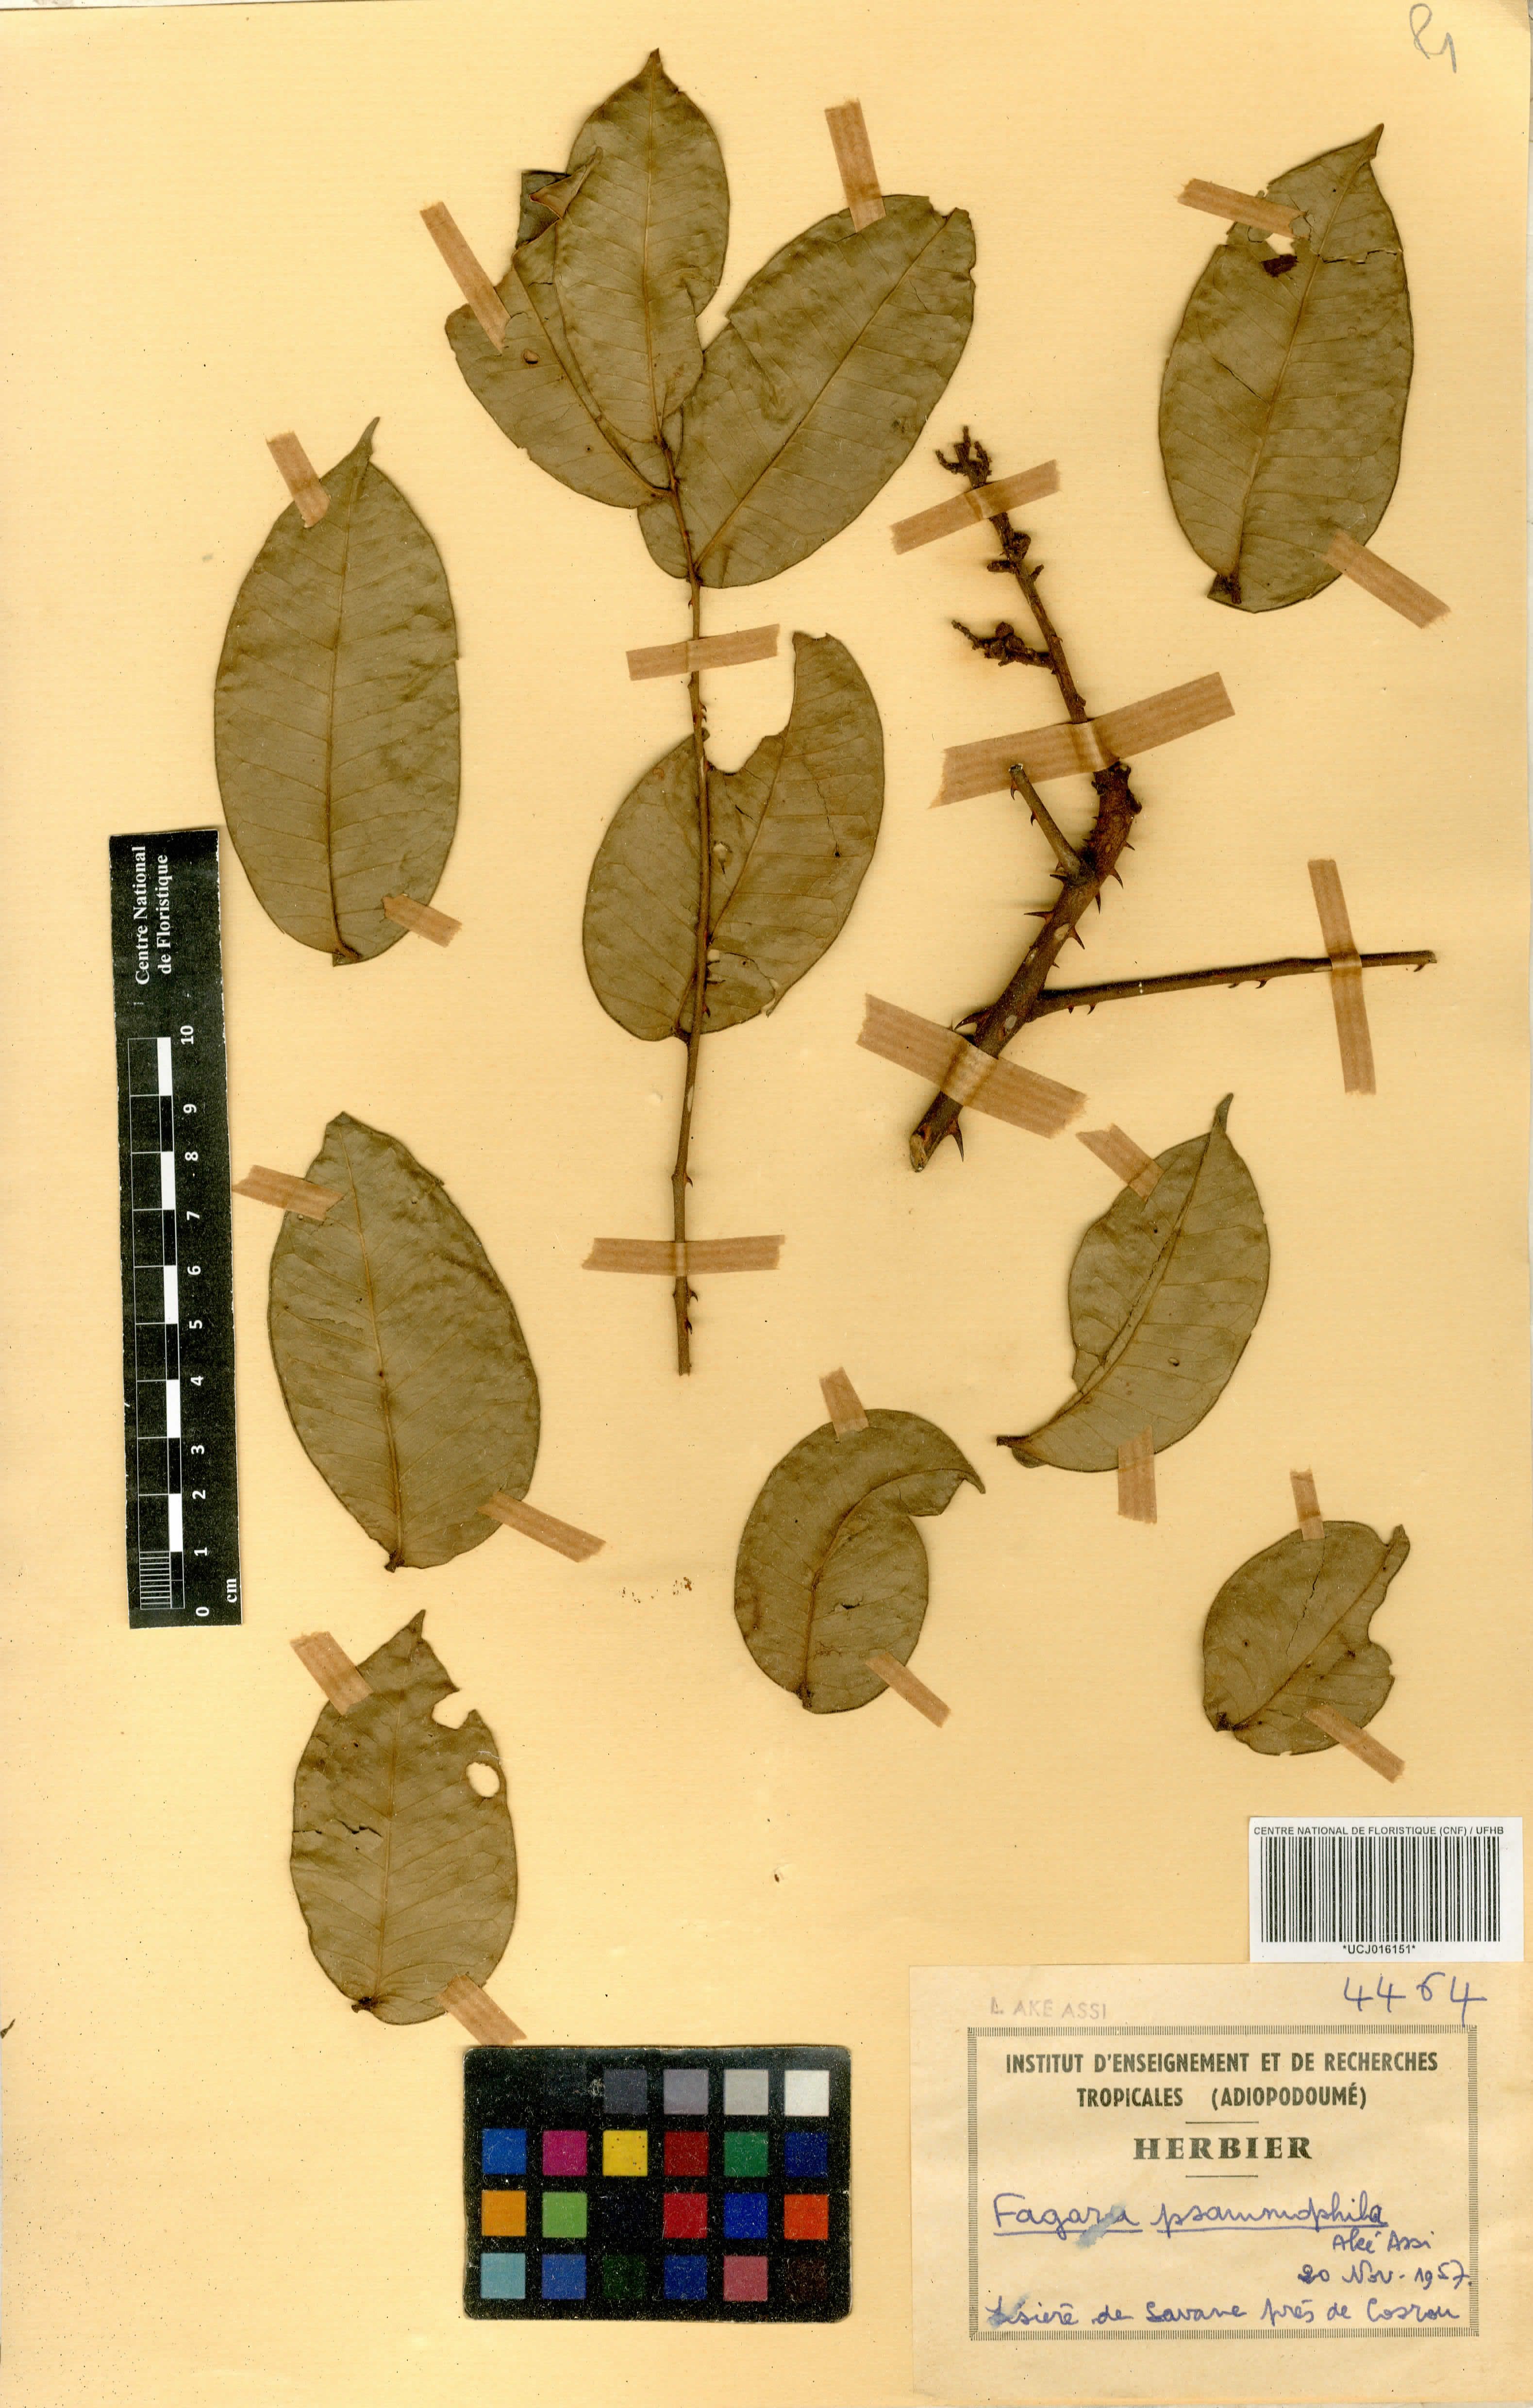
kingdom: Plantae
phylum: Tracheophyta
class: Magnoliopsida
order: Sapindales
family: Rutaceae
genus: Zanthoxylum
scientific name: Zanthoxylum psammophilum
